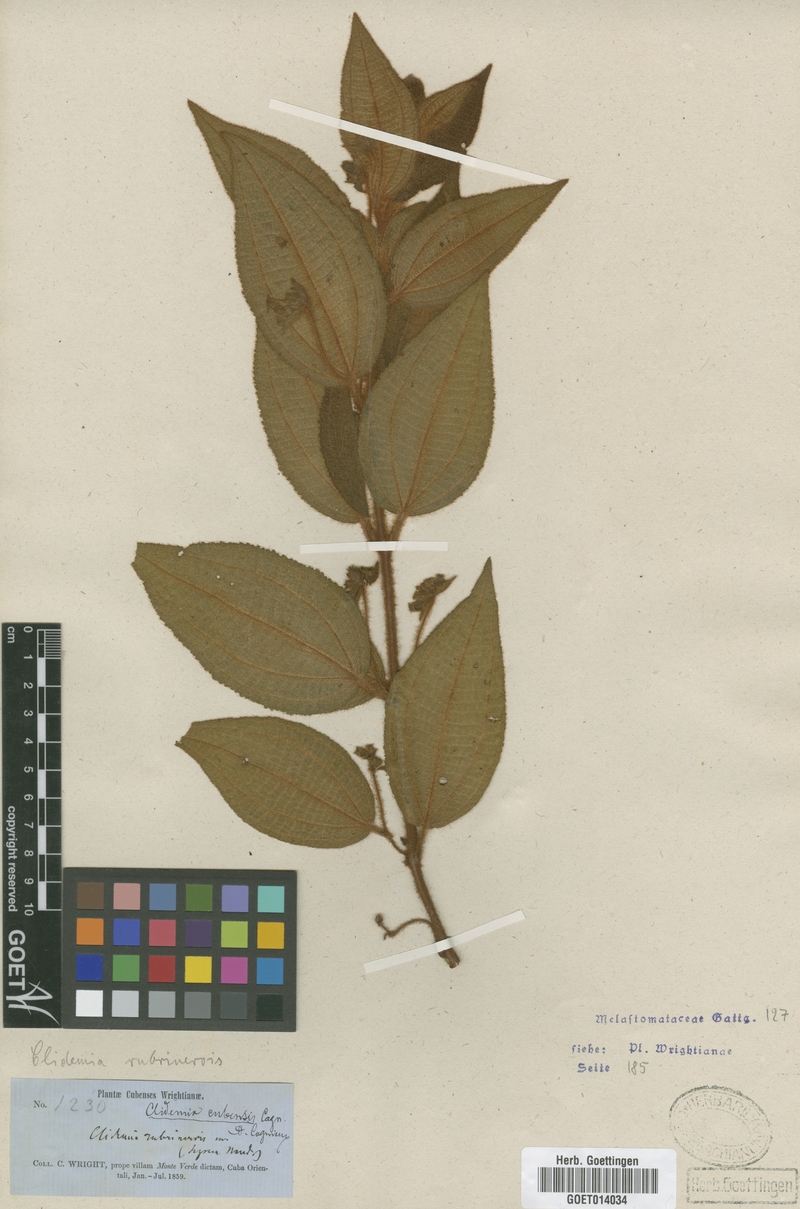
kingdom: Plantae
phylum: Tracheophyta
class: Magnoliopsida
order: Myrtales
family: Melastomataceae
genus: Miconia
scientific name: Miconia rubrinervis
